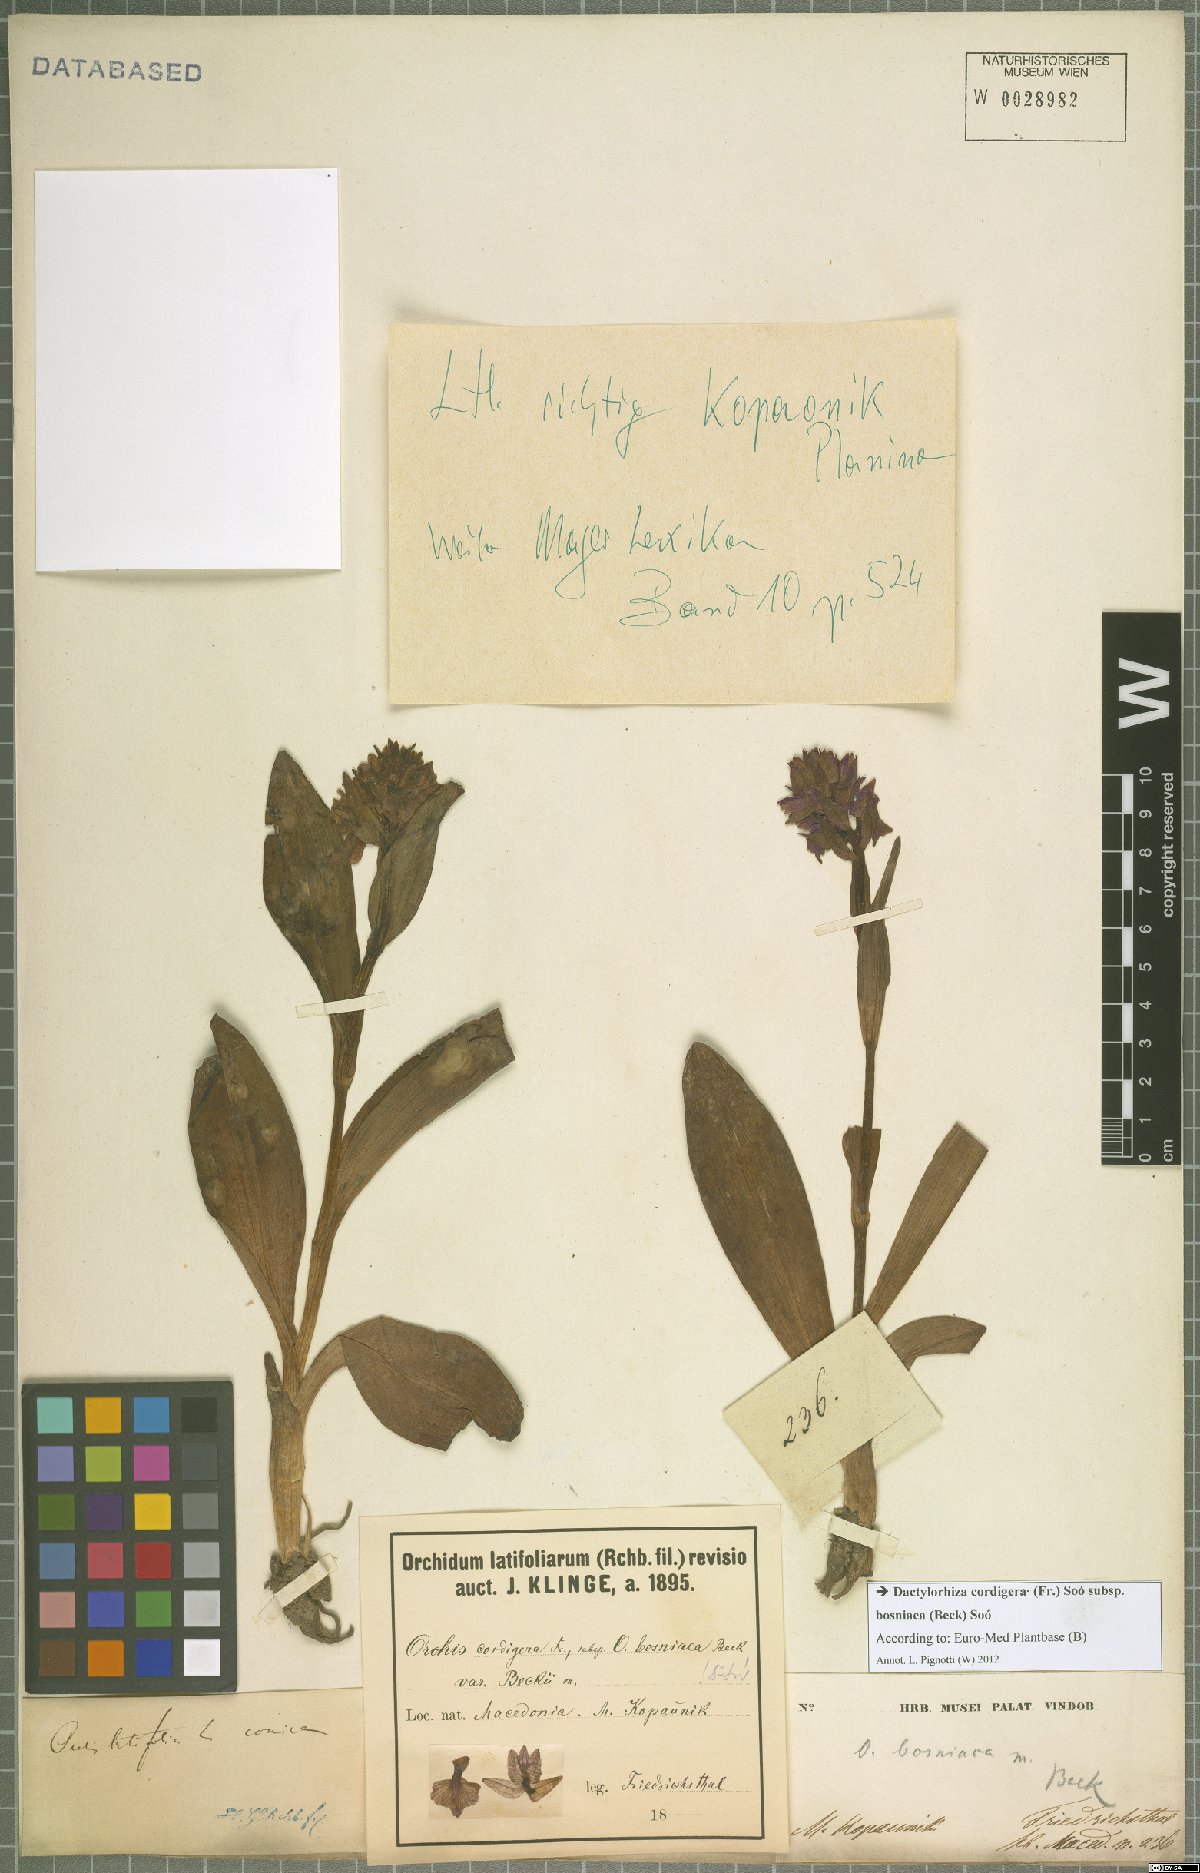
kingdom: Plantae
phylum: Tracheophyta
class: Liliopsida
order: Asparagales
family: Orchidaceae
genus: Dactylorhiza
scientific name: Dactylorhiza majalis
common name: Marsh orchid
